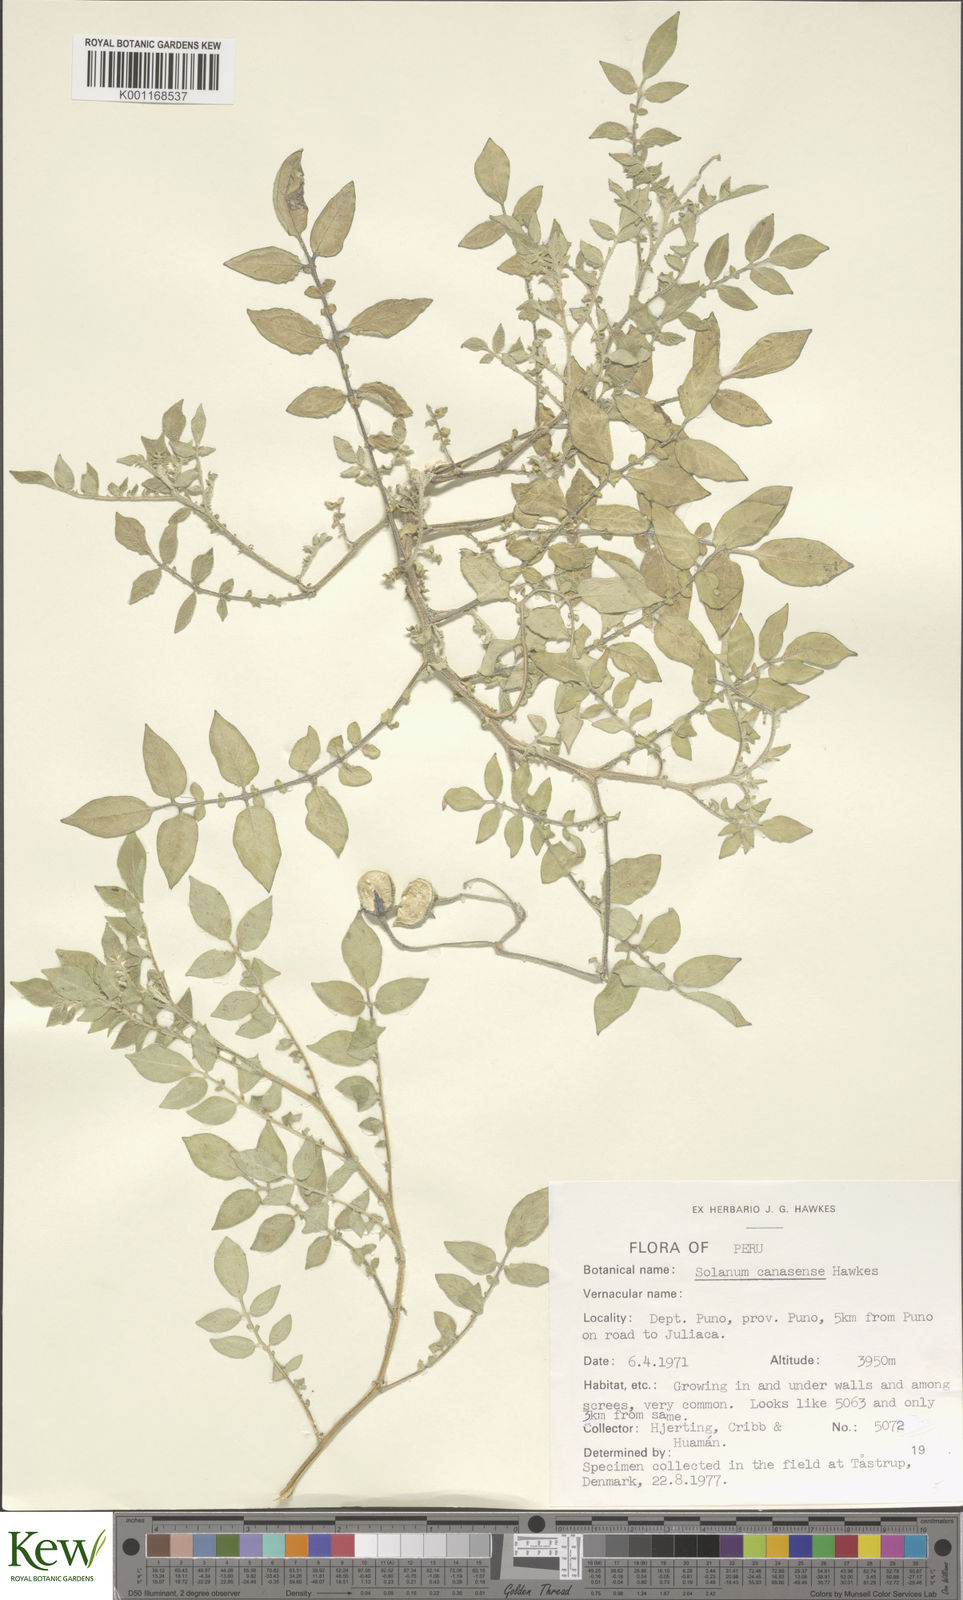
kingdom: Plantae
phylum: Tracheophyta
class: Magnoliopsida
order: Solanales
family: Solanaceae
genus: Solanum
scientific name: Solanum candolleanum
